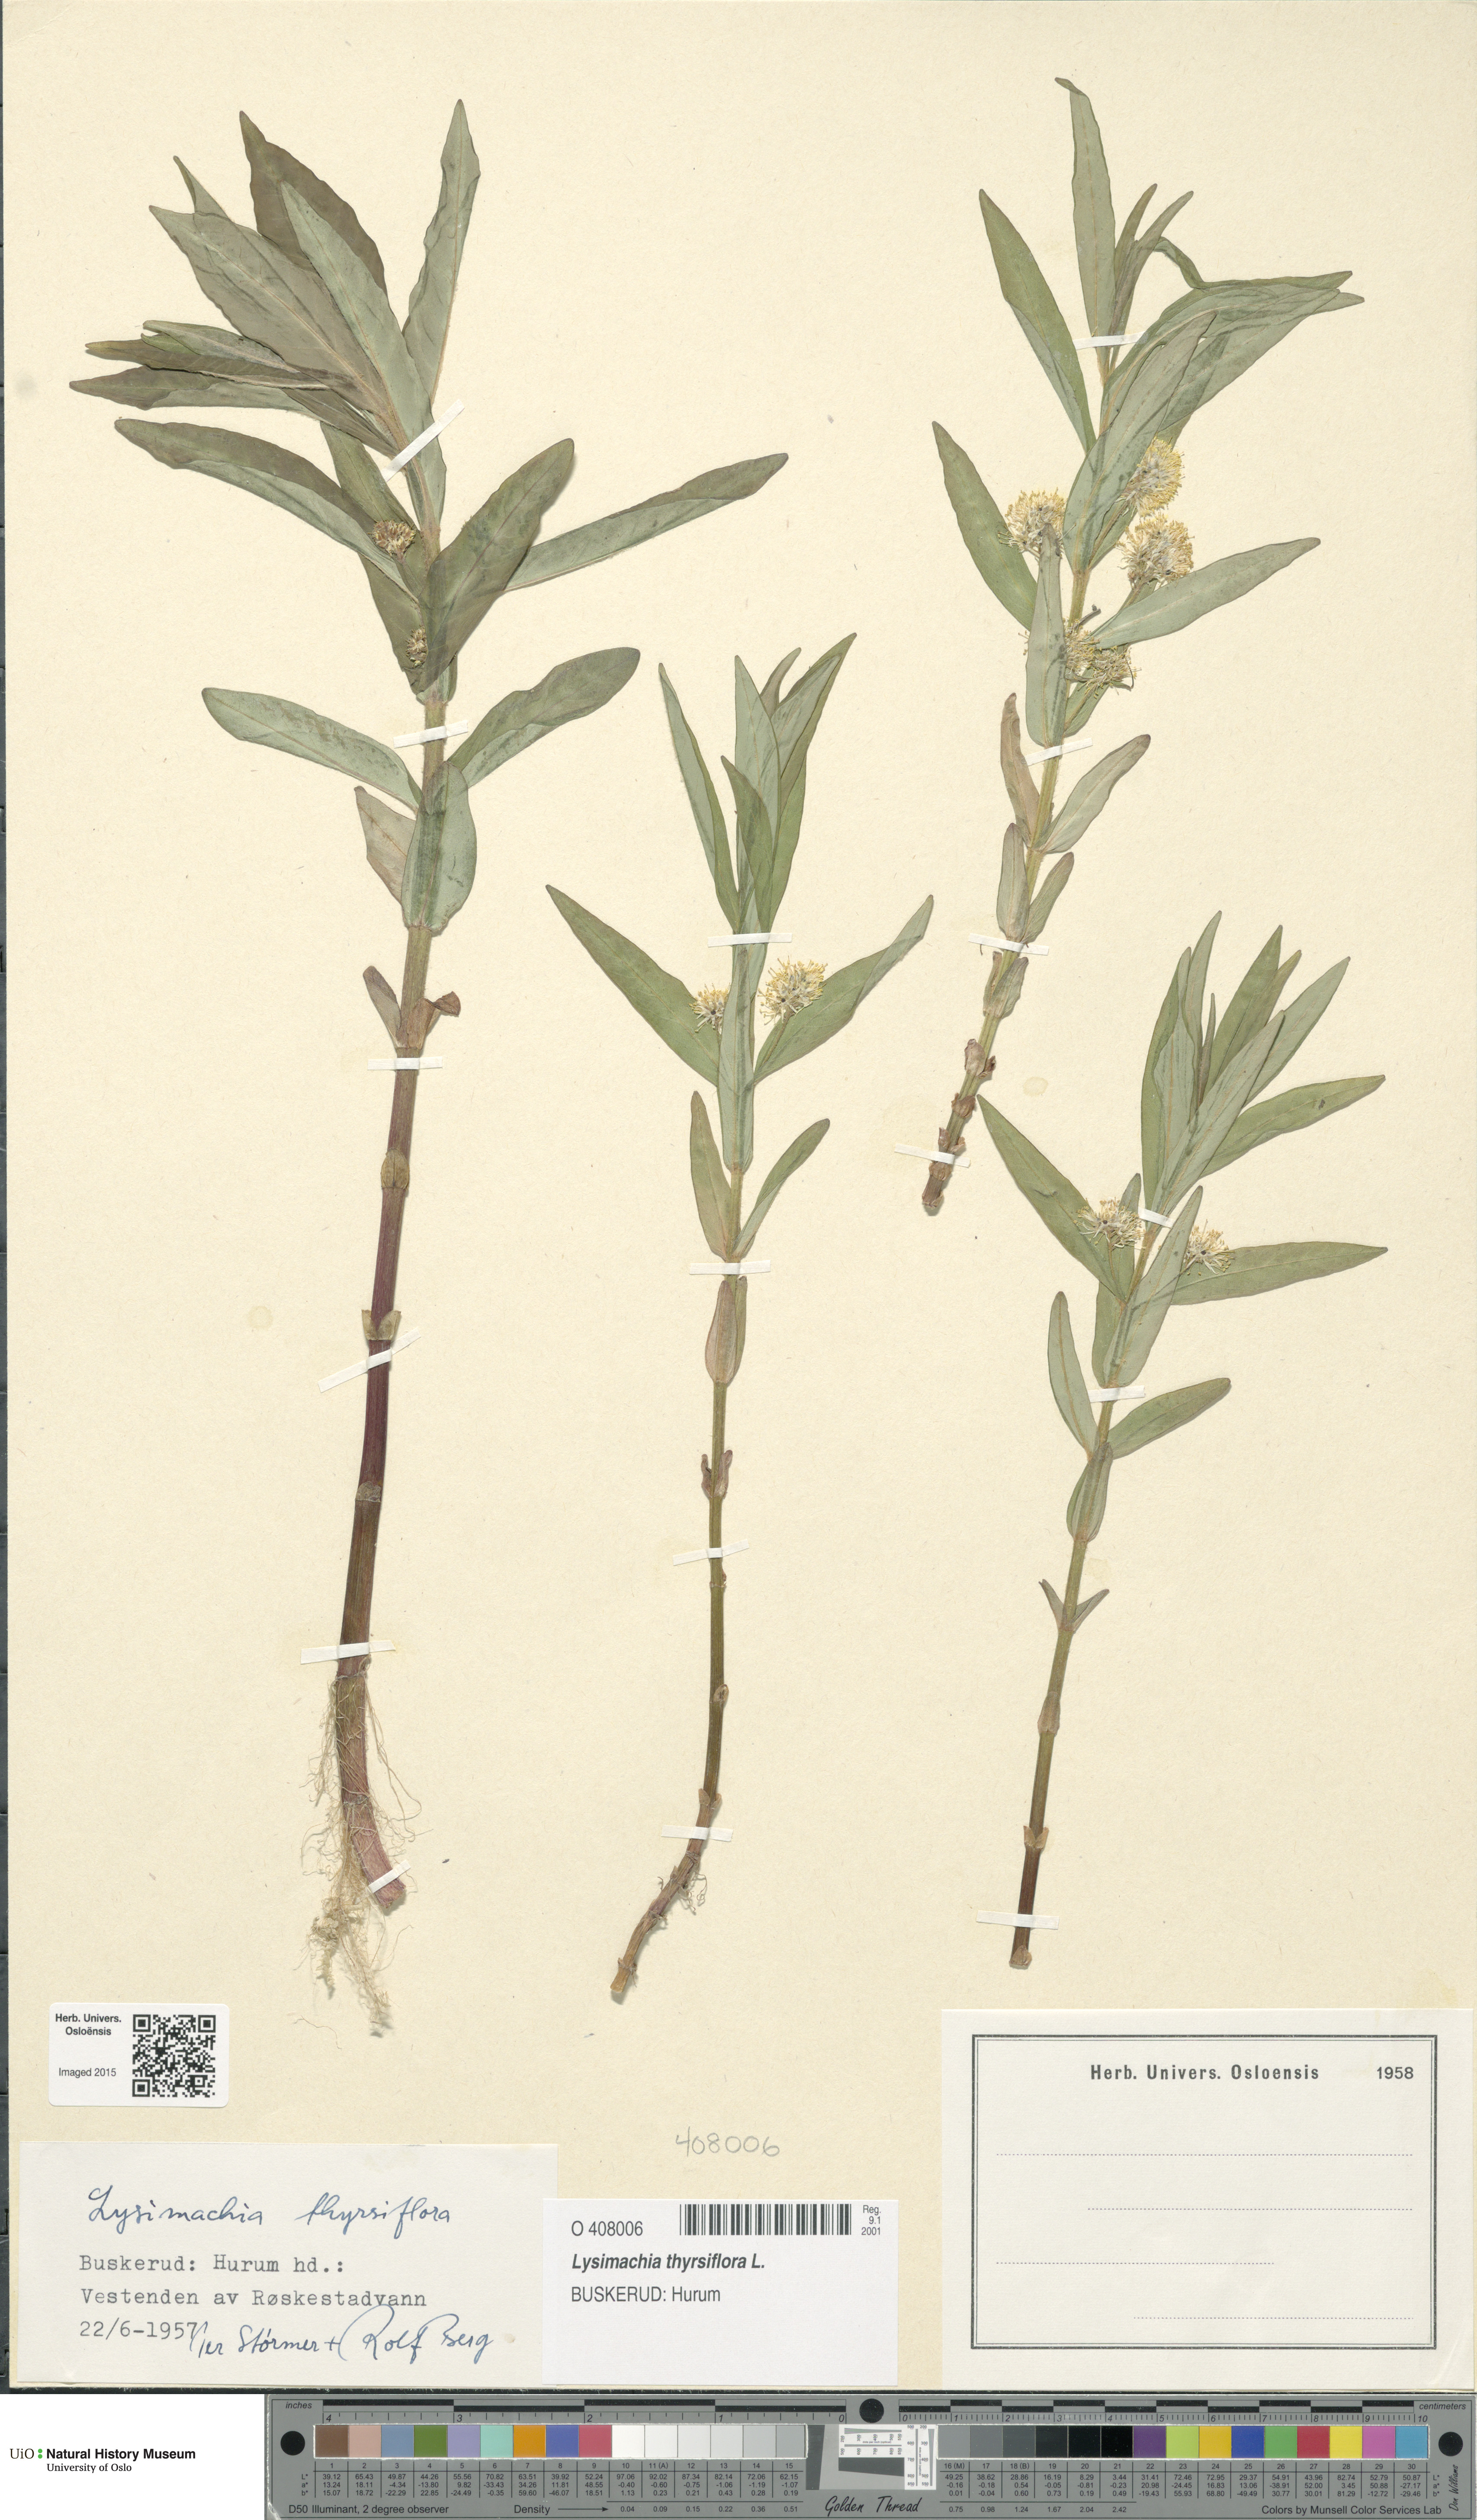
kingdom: Plantae
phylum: Tracheophyta
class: Magnoliopsida
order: Ericales
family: Primulaceae
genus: Lysimachia
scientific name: Lysimachia thyrsiflora
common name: Tufted loosestrife
